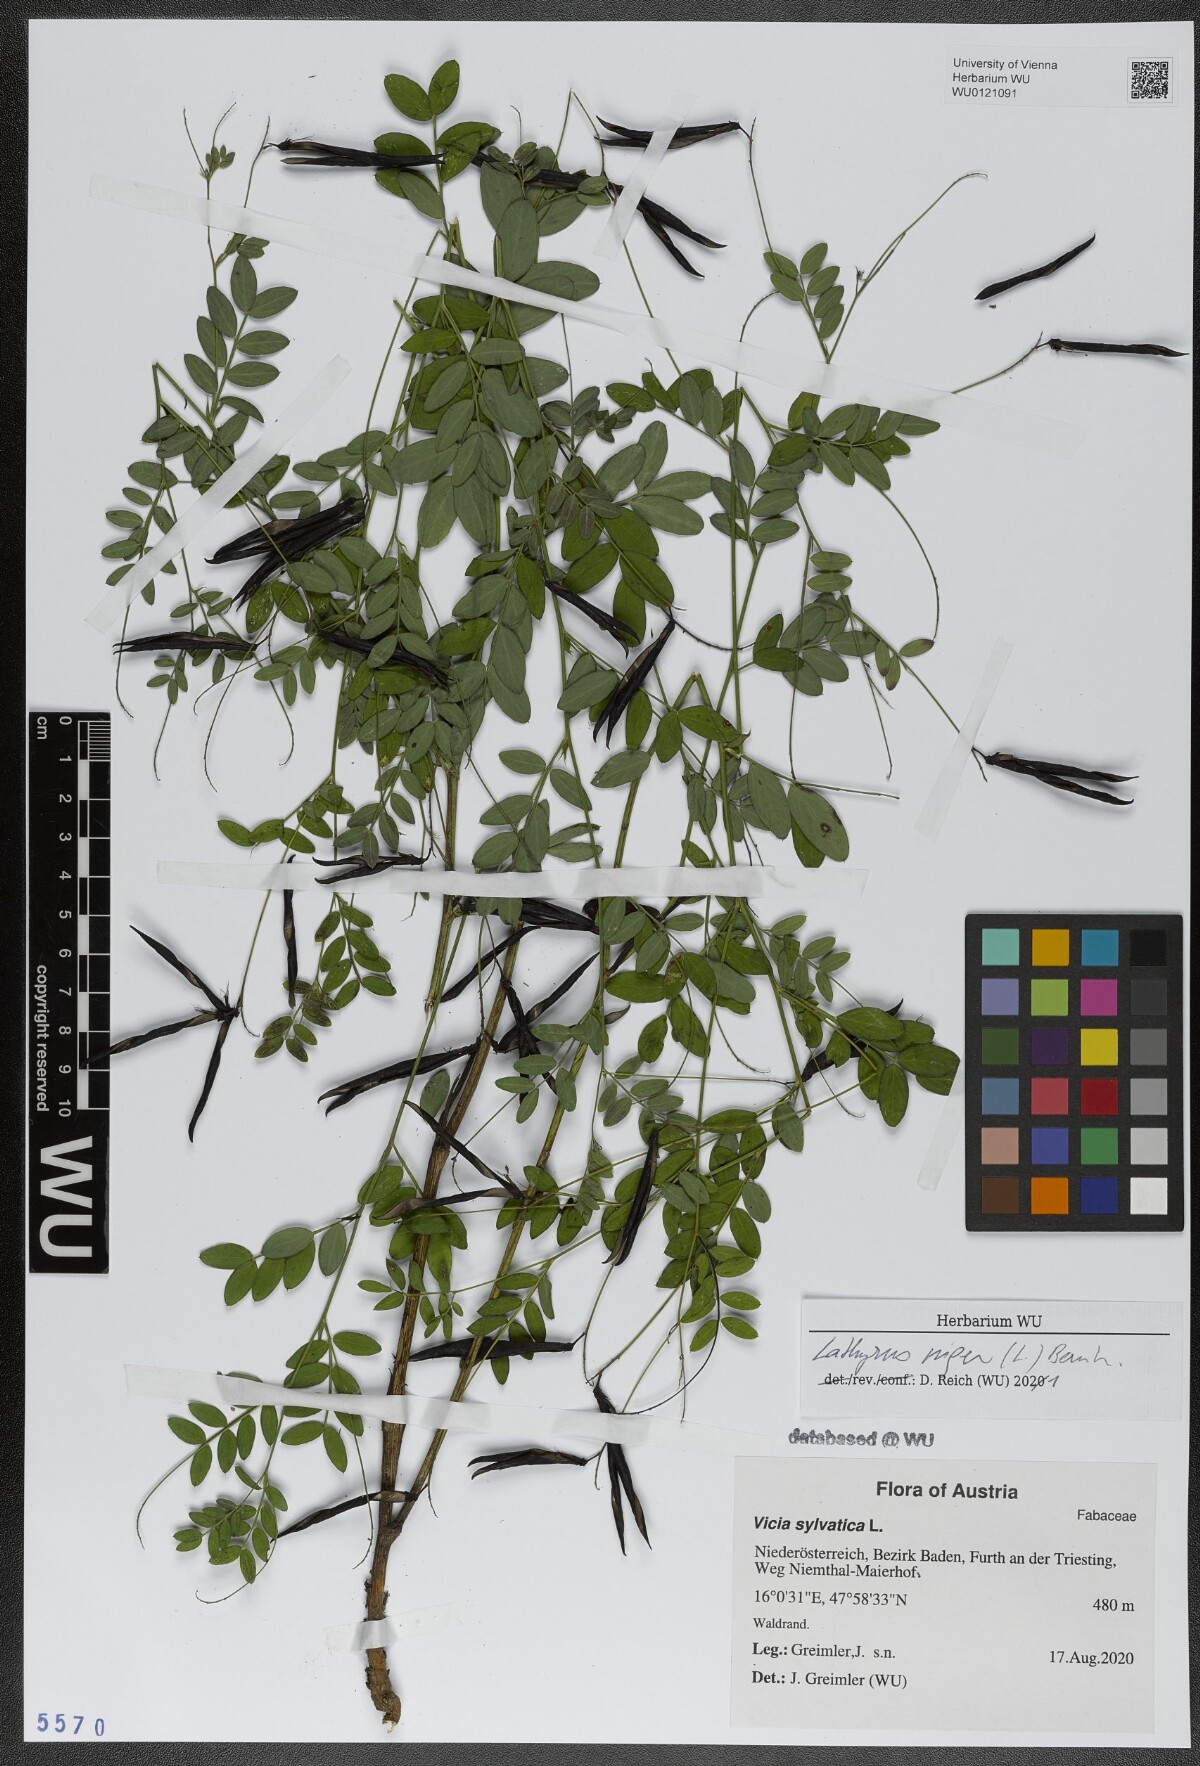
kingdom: Plantae
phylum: Tracheophyta
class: Magnoliopsida
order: Fabales
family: Fabaceae
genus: Lathyrus
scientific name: Lathyrus niger
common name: Black pea
